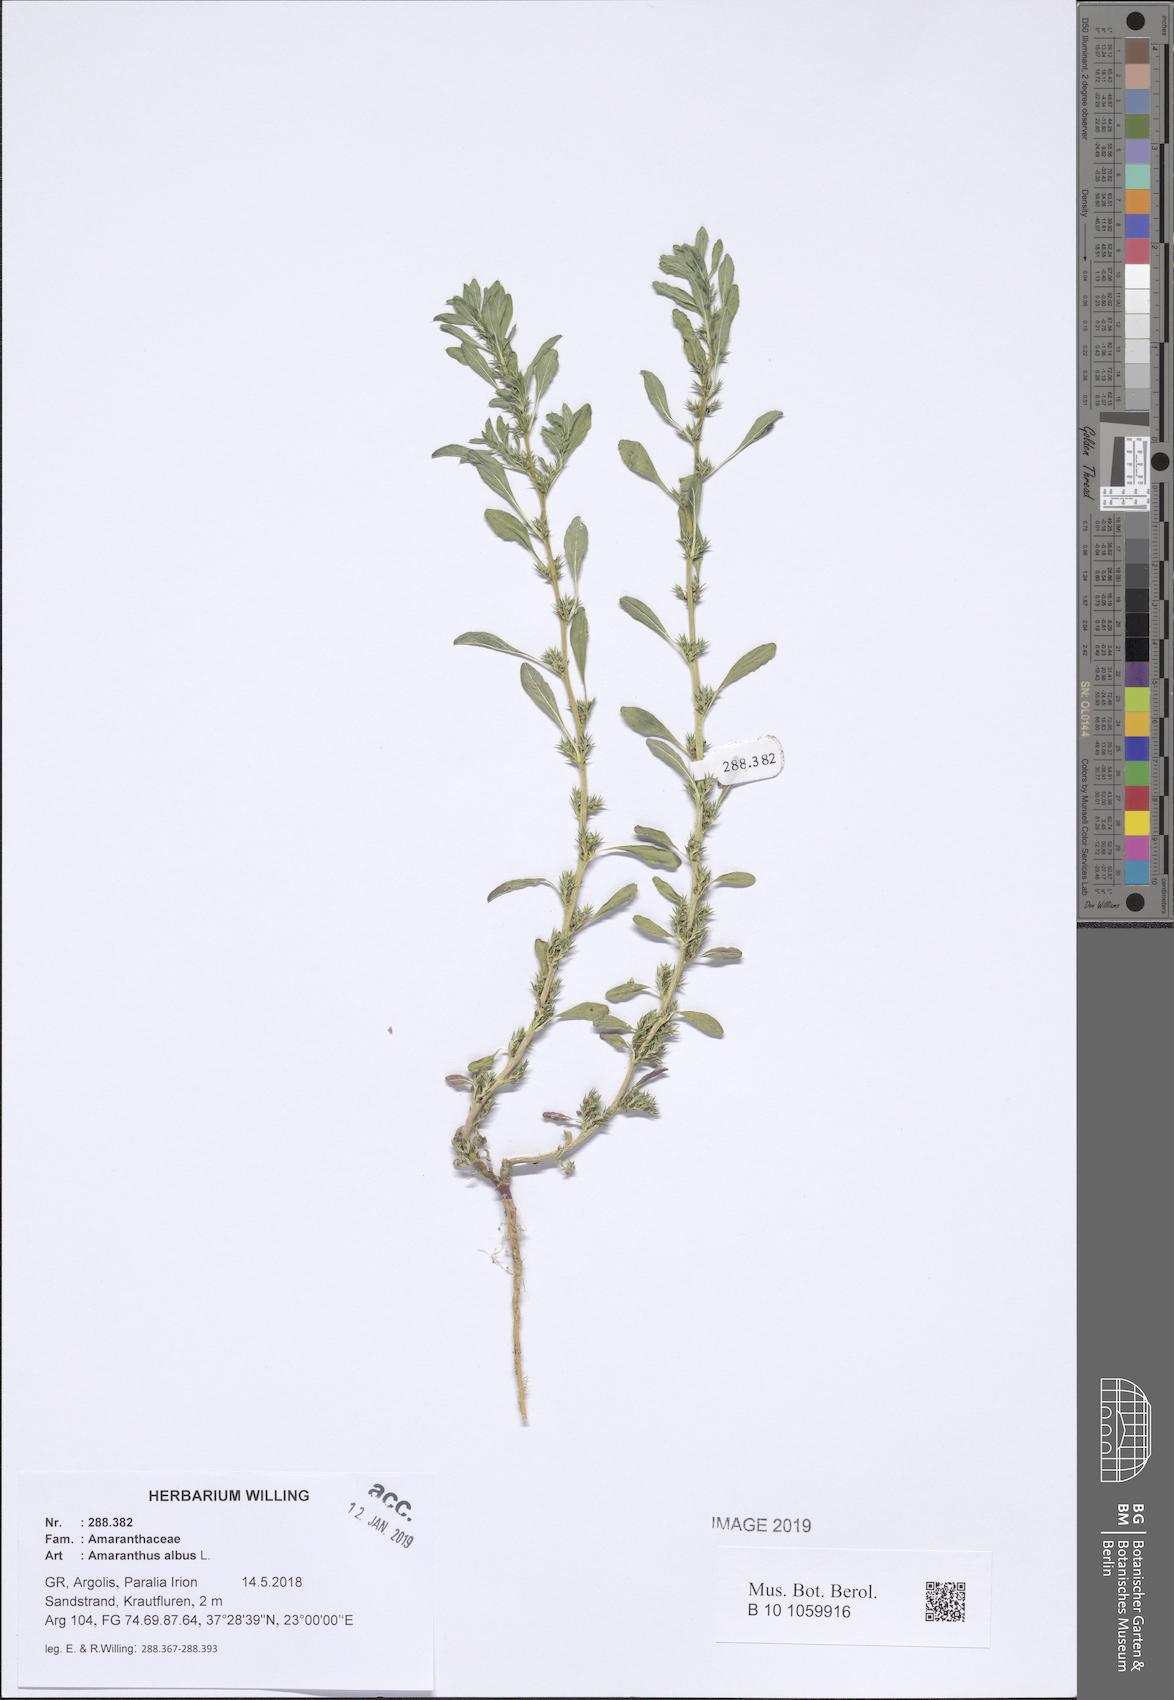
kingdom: Plantae
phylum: Tracheophyta
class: Magnoliopsida
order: Caryophyllales
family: Amaranthaceae
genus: Amaranthus
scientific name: Amaranthus albus
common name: White pigweed
